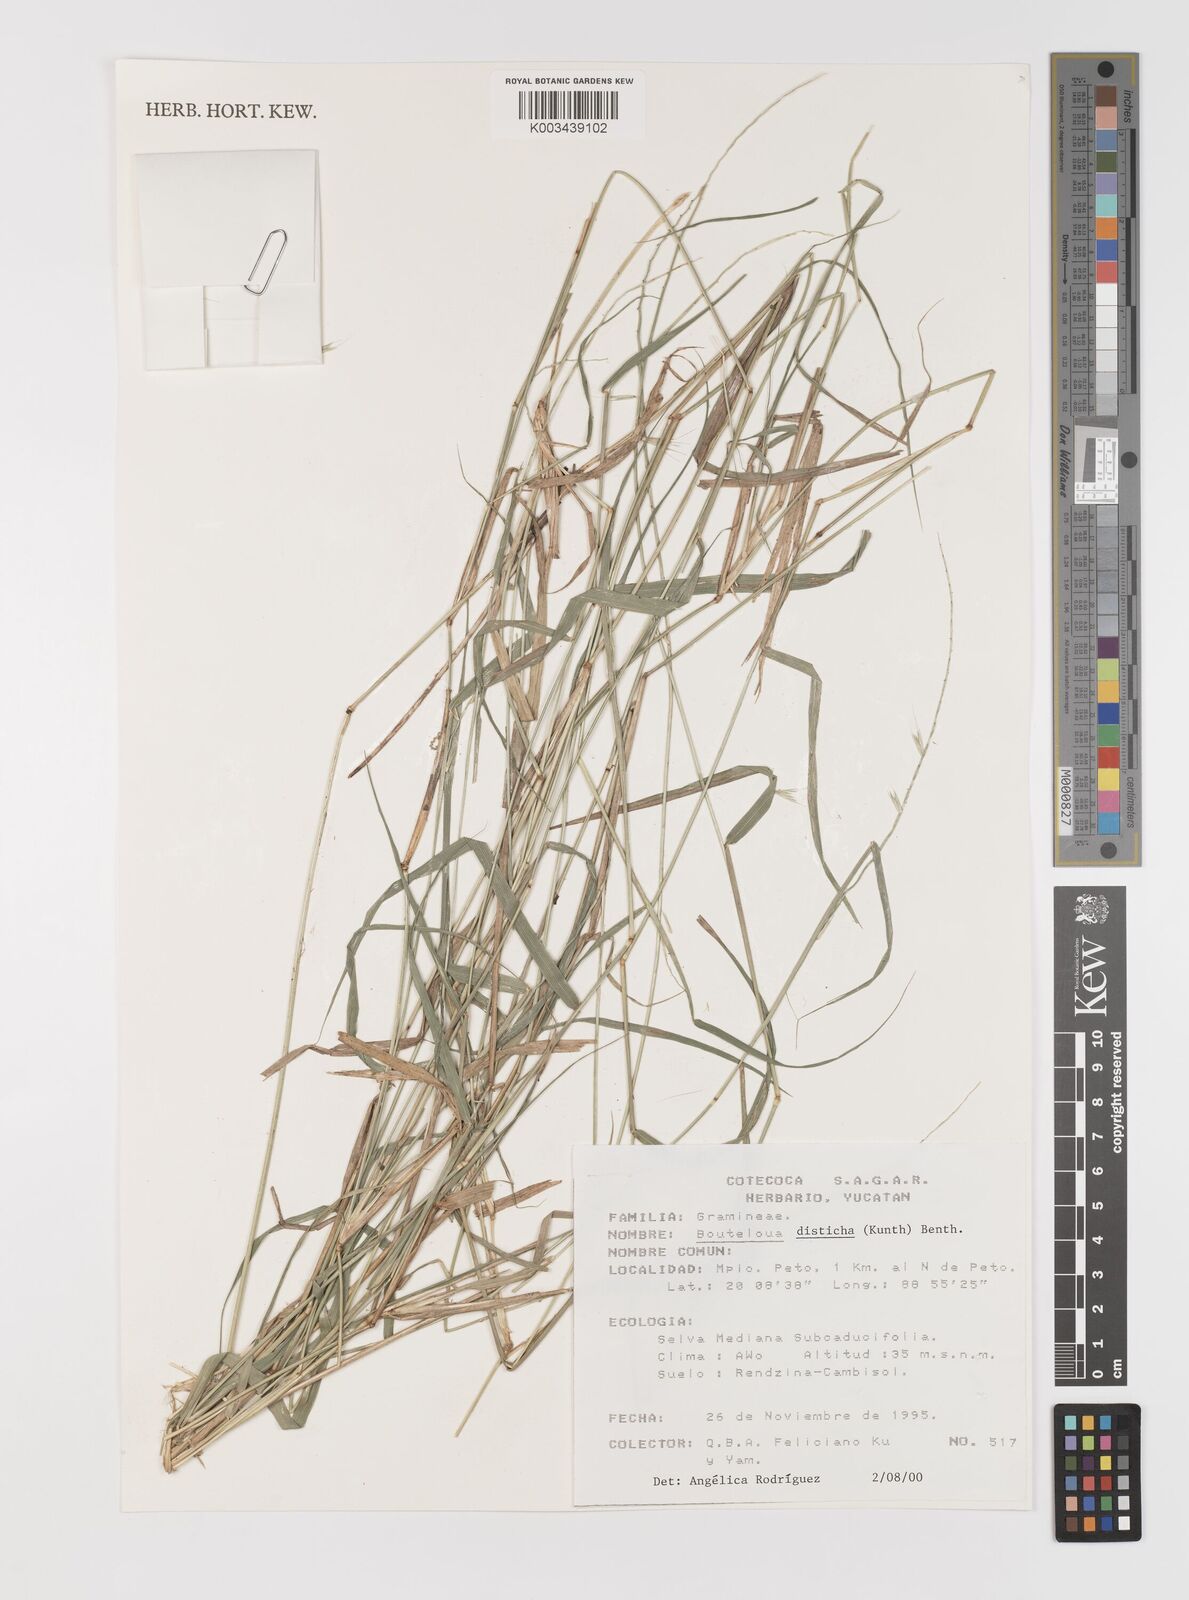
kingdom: Plantae
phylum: Tracheophyta
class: Liliopsida
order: Poales
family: Poaceae
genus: Bouteloua
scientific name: Bouteloua disticha
